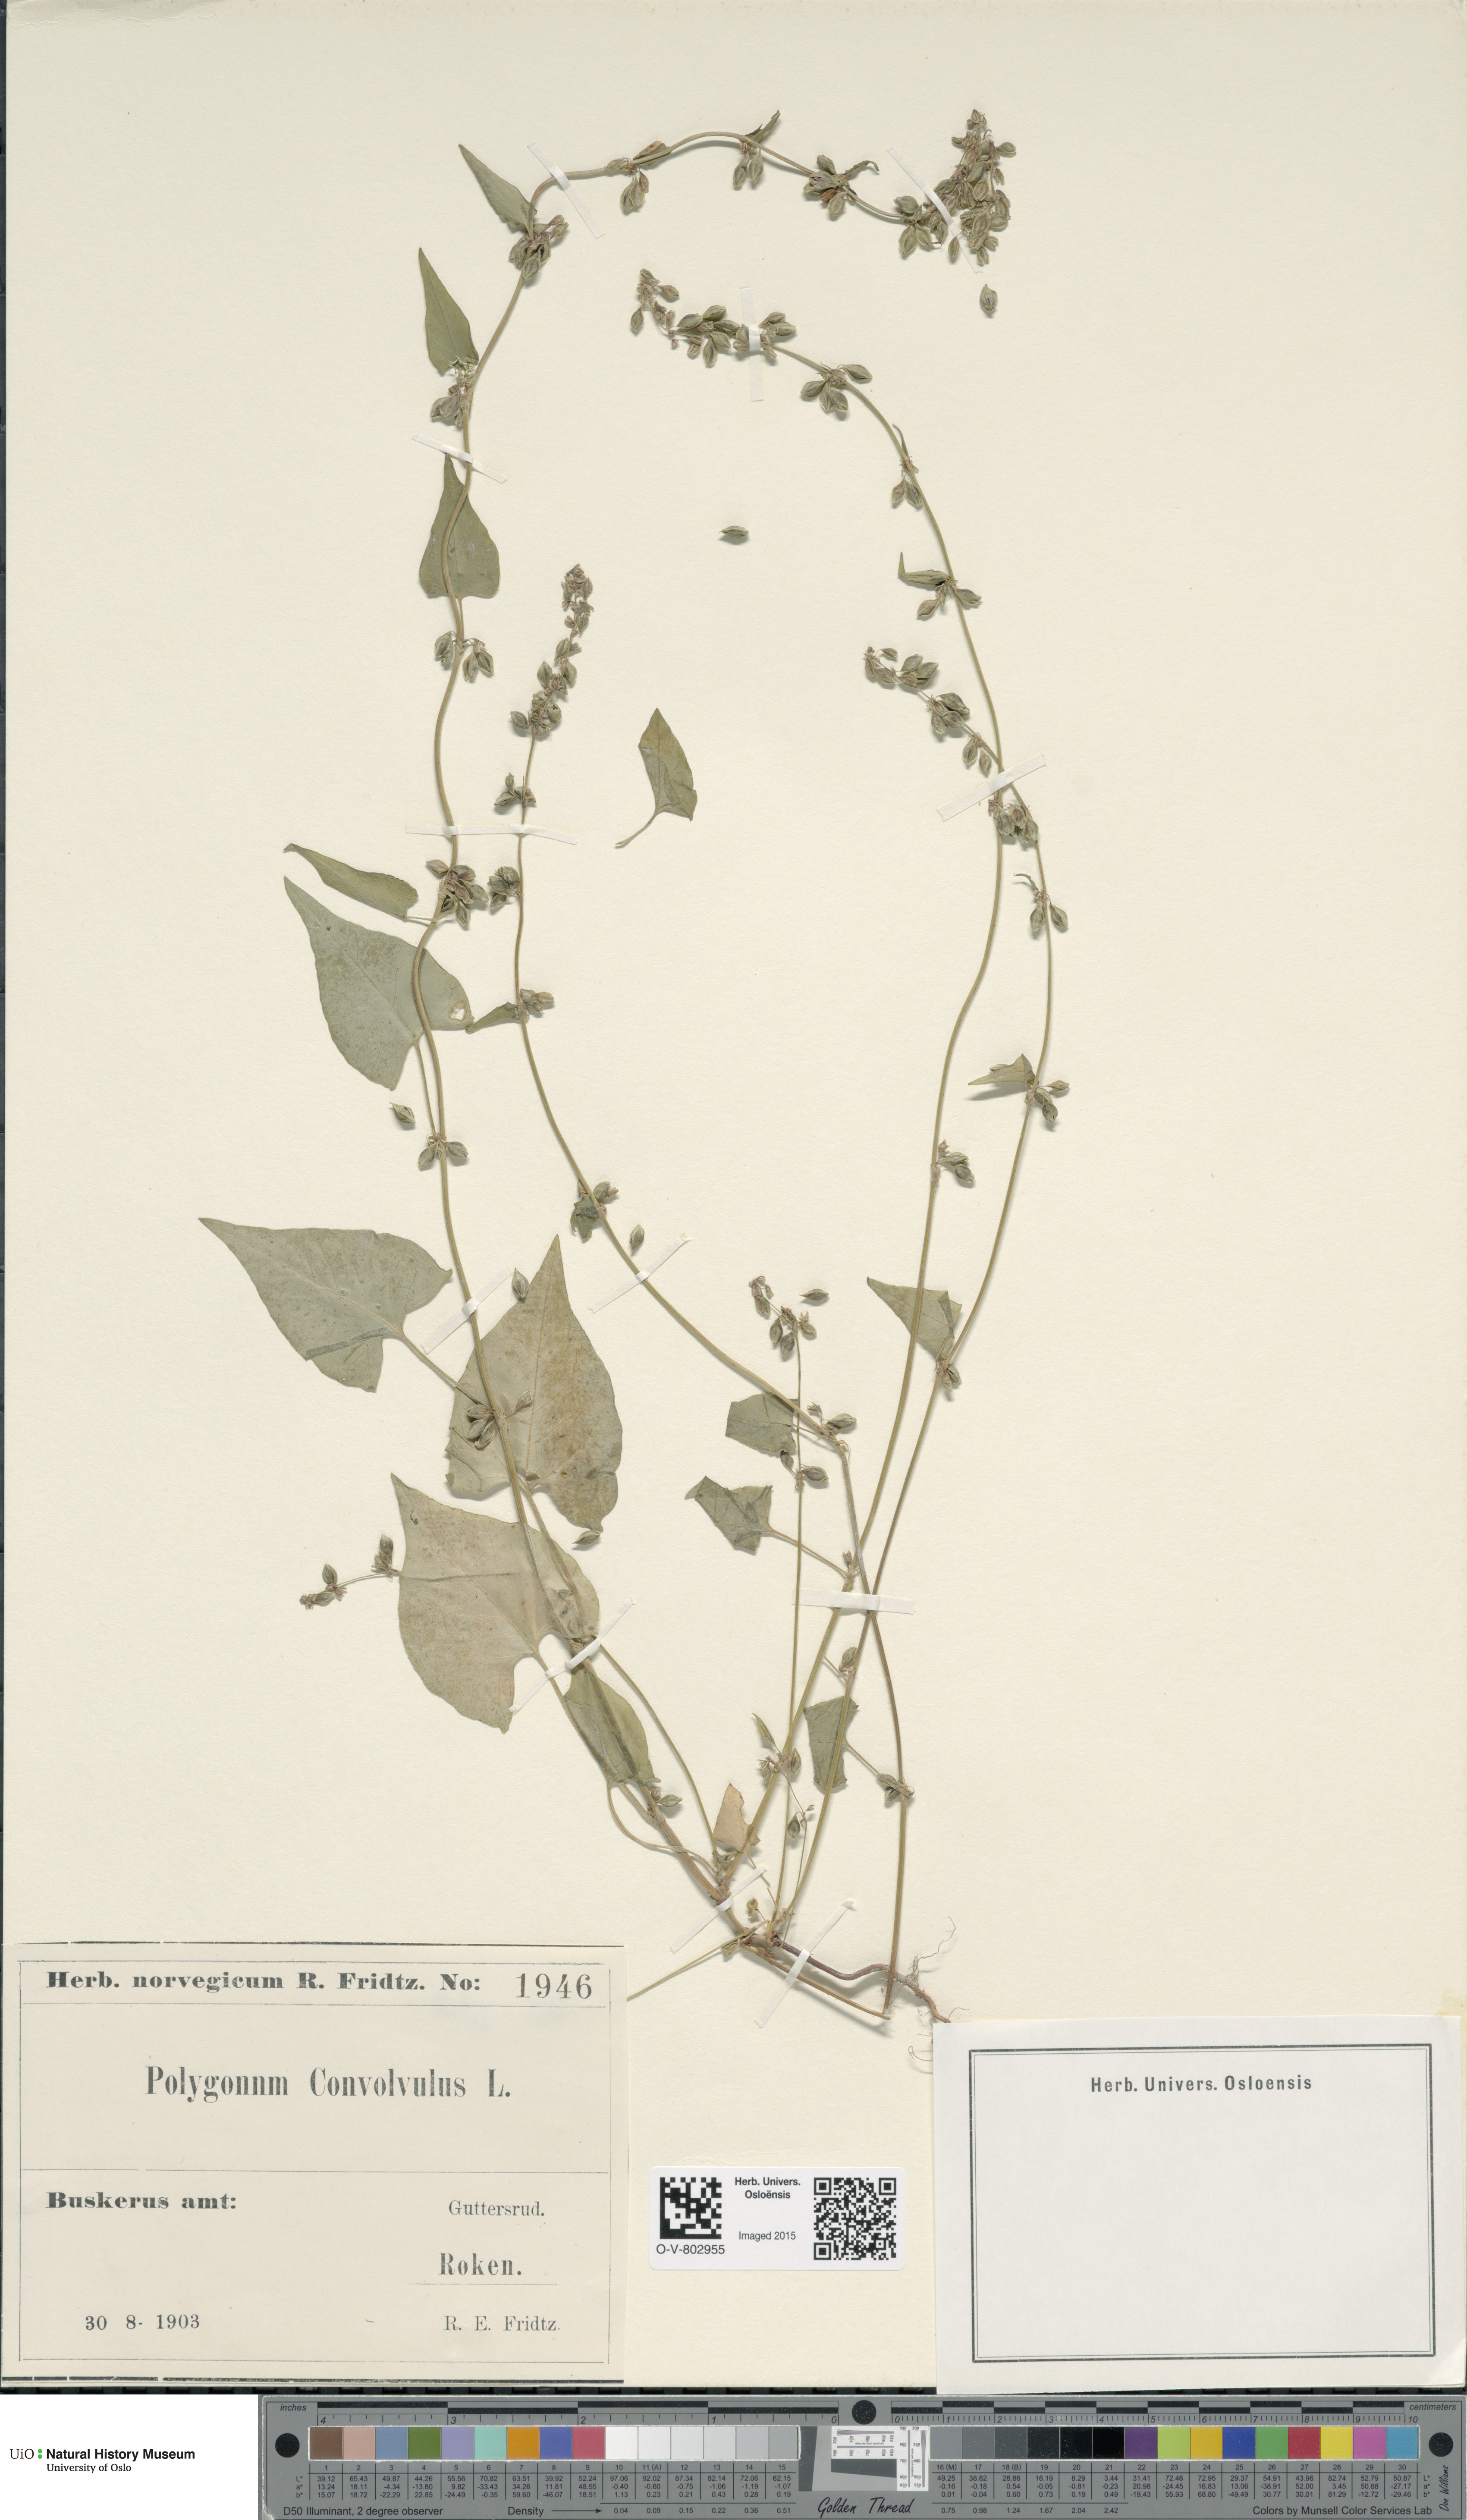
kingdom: Plantae
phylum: Tracheophyta
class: Magnoliopsida
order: Caryophyllales
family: Polygonaceae
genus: Fallopia
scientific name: Fallopia convolvulus
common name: Black bindweed
